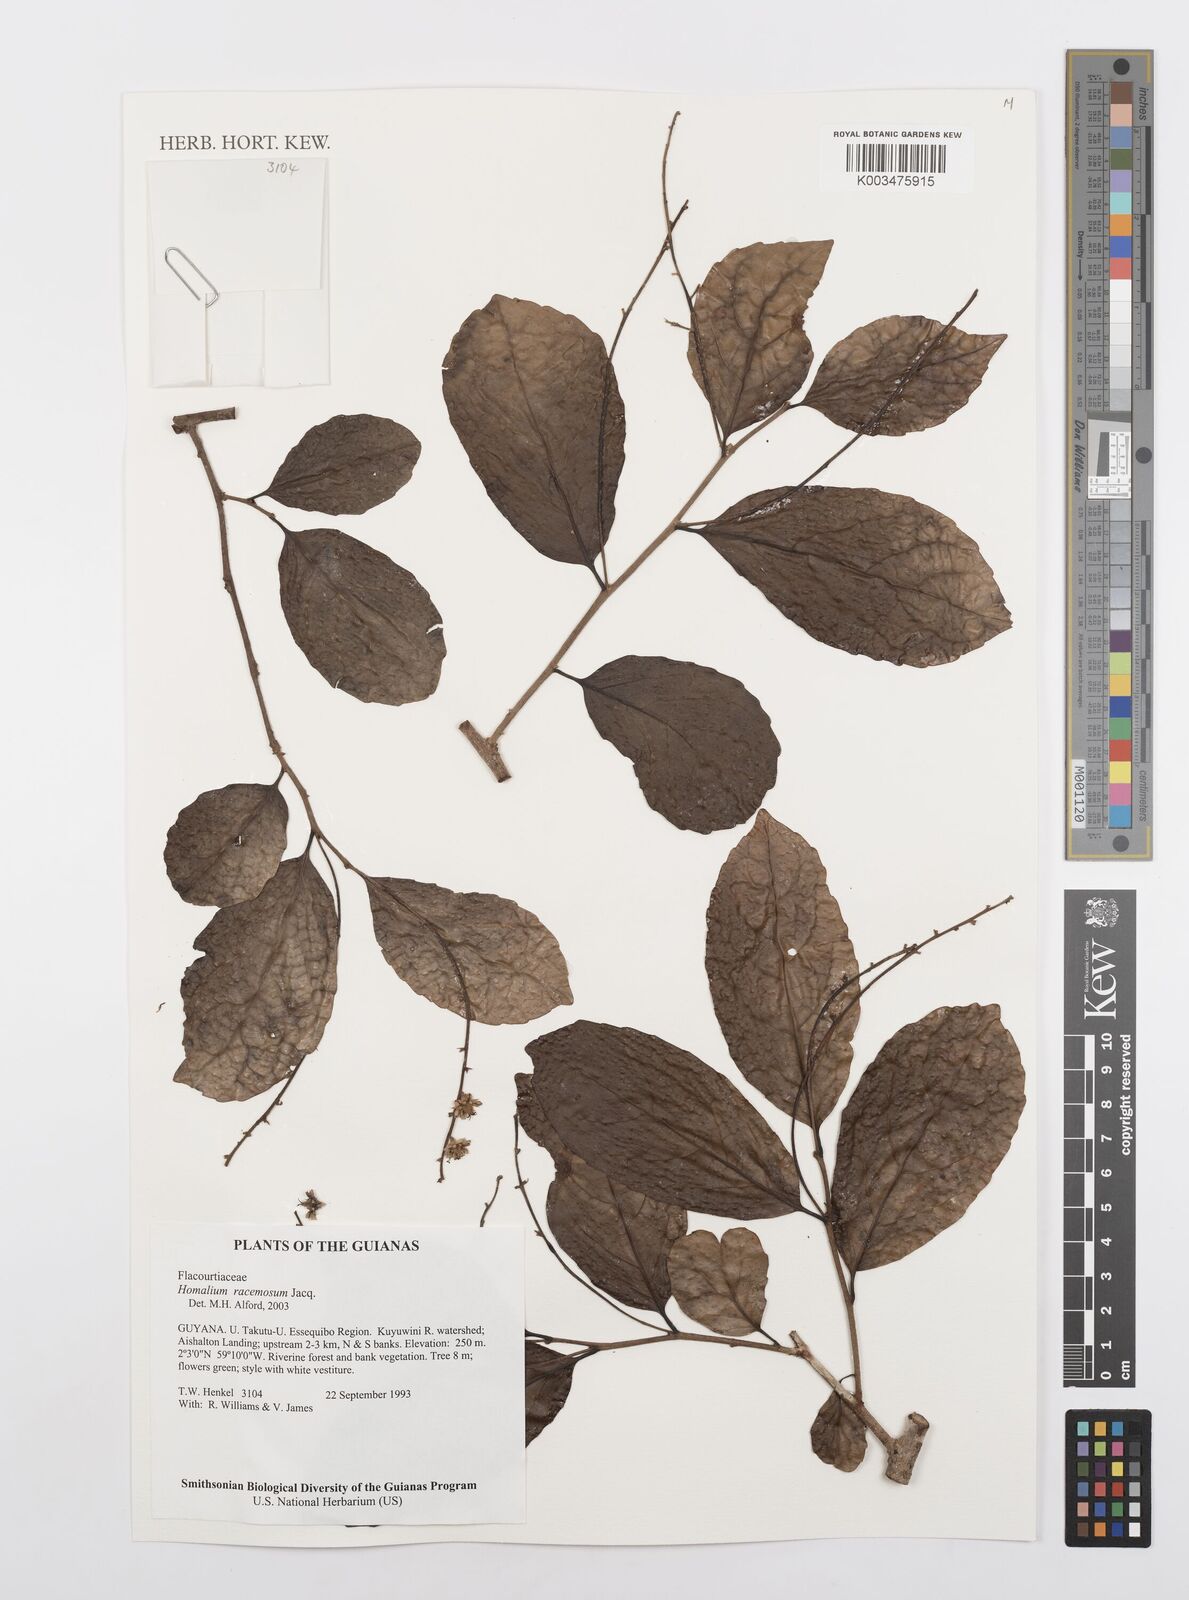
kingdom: Plantae
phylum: Tracheophyta
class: Magnoliopsida
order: Malpighiales
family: Salicaceae
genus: Homalium
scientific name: Homalium racemosum
